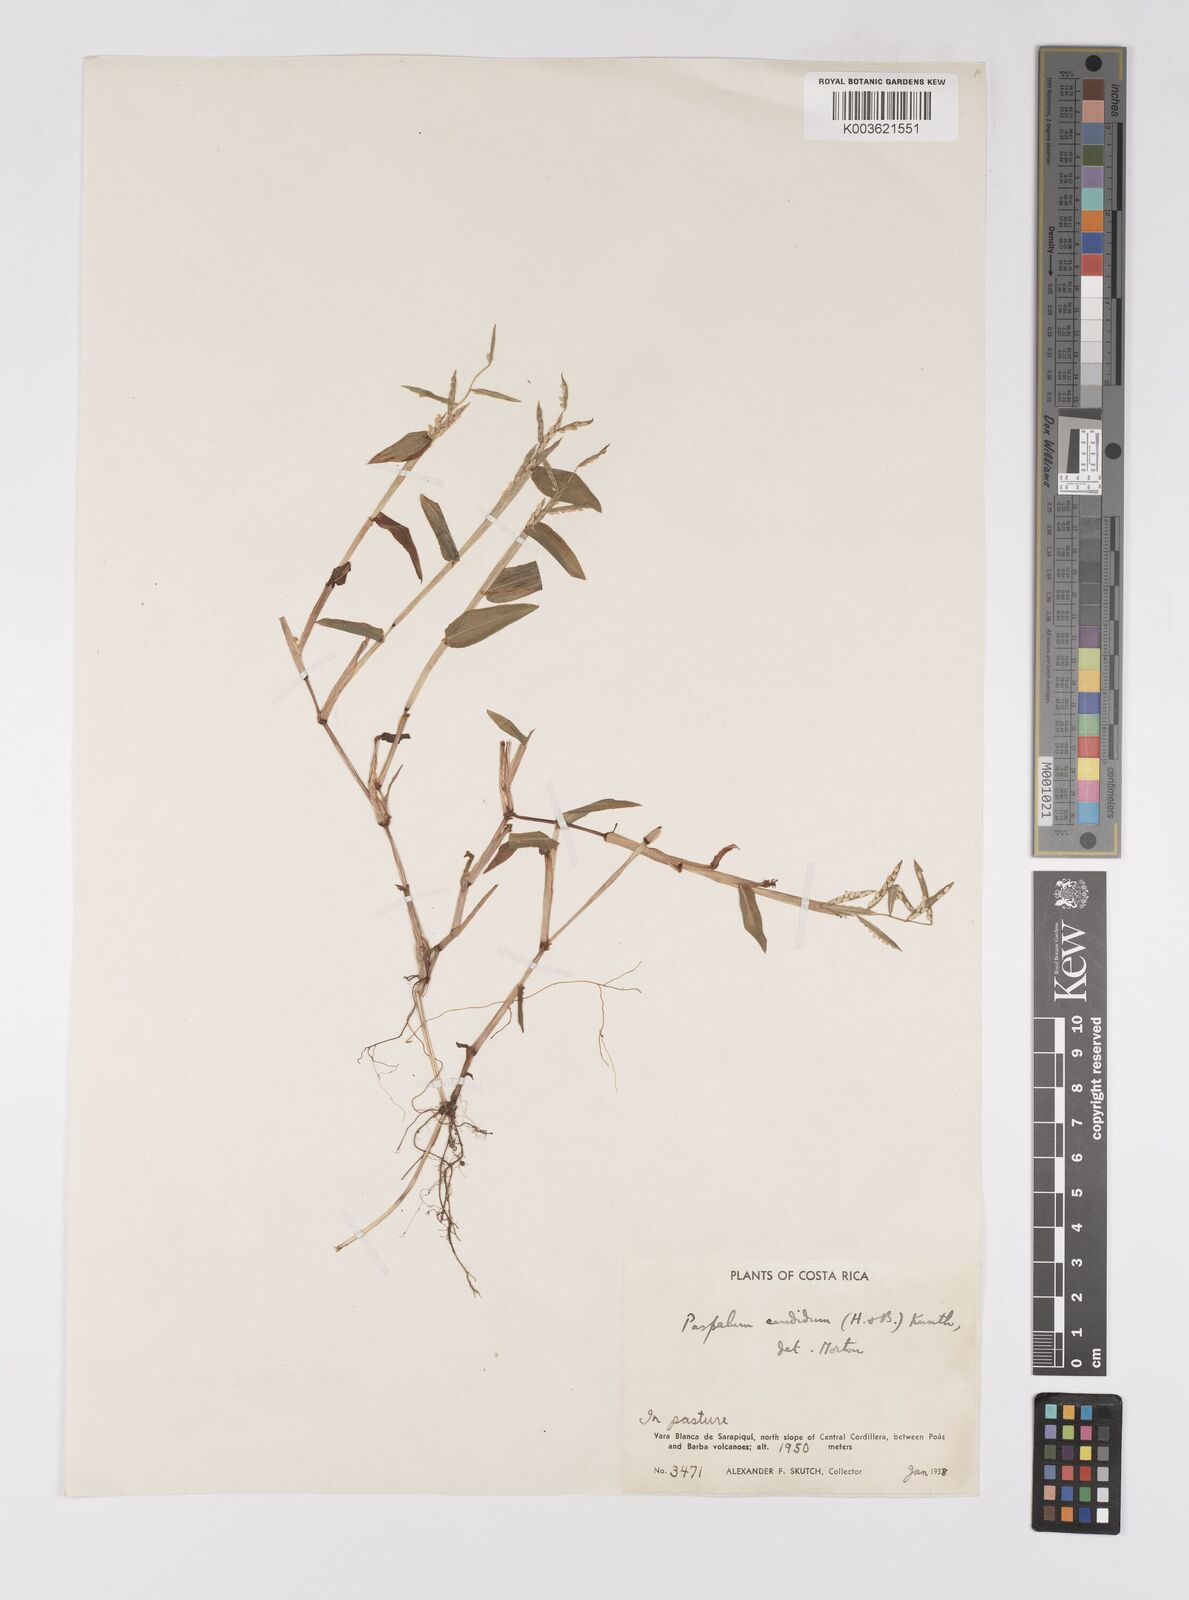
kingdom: Plantae
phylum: Tracheophyta
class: Liliopsida
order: Poales
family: Poaceae
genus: Paspalum
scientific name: Paspalum candidum
